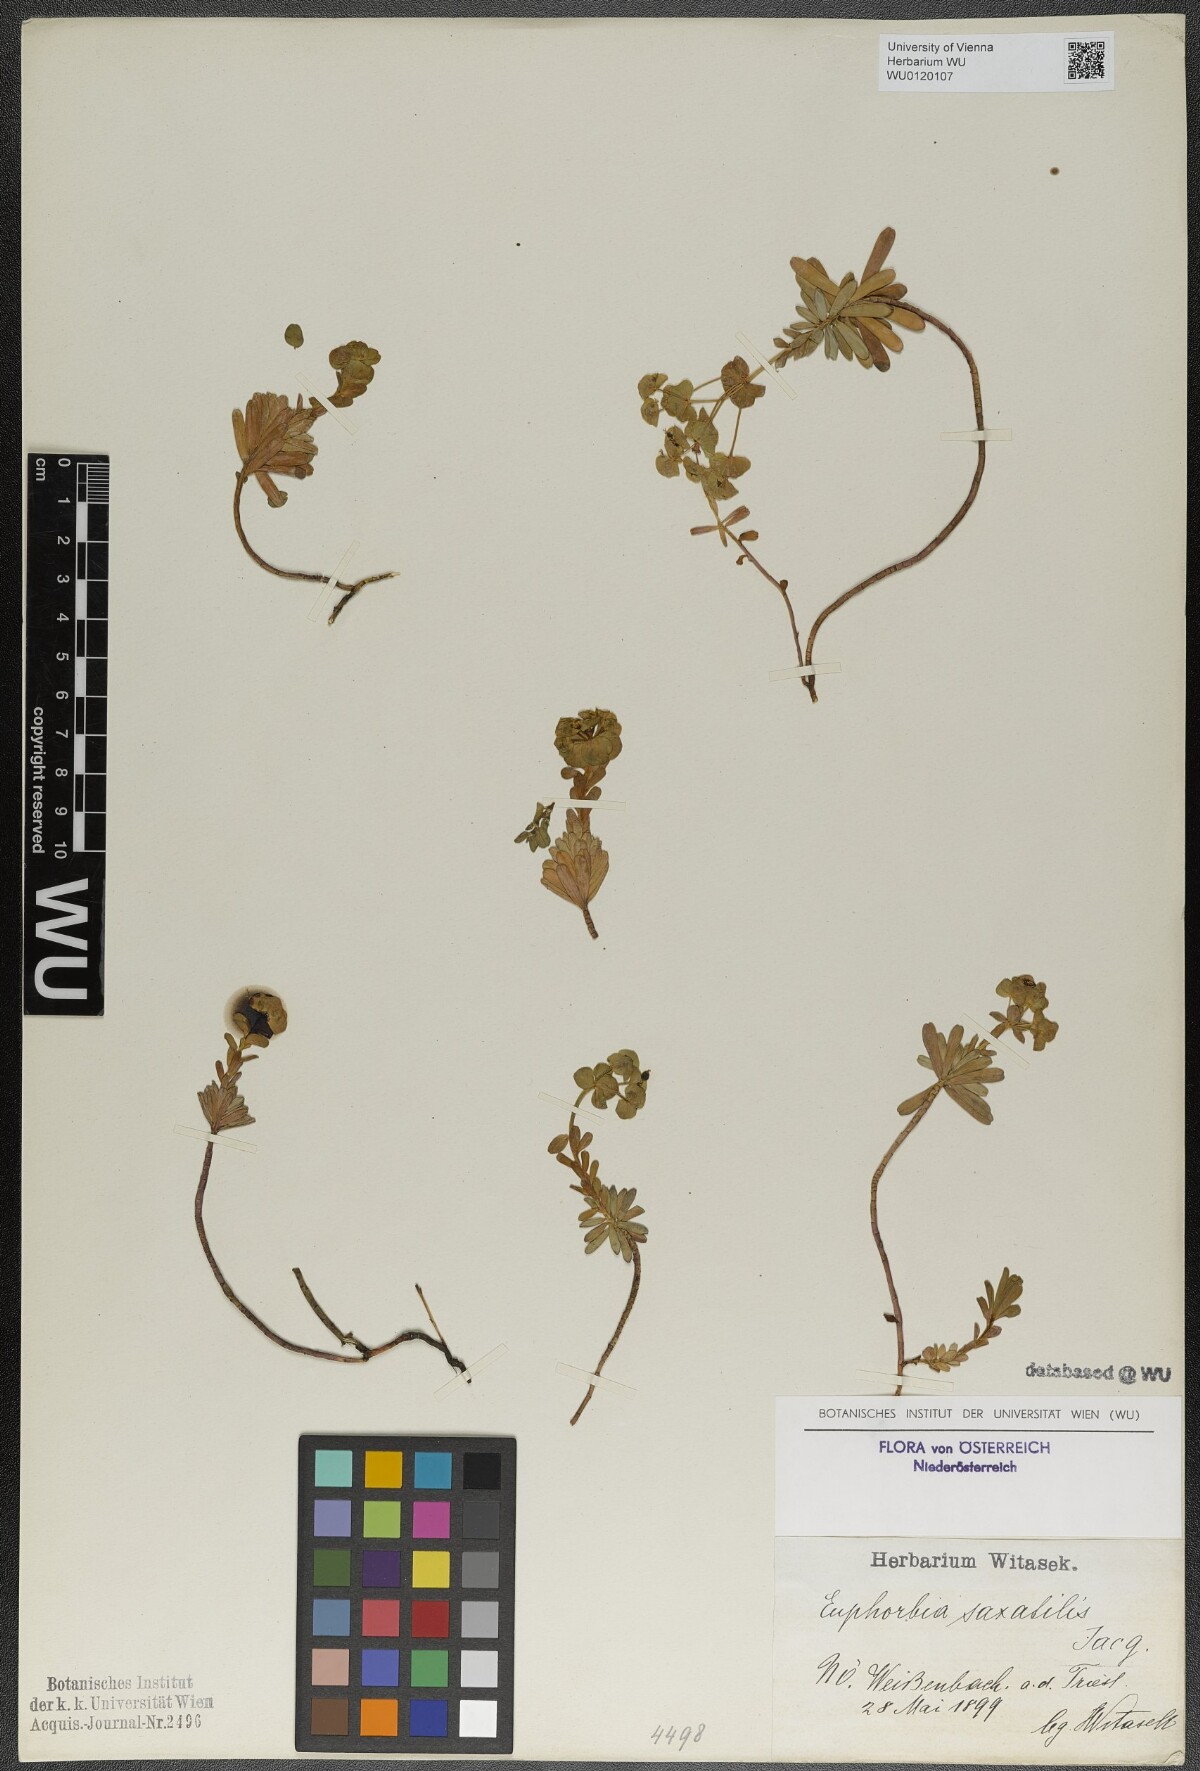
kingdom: Plantae
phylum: Tracheophyta
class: Magnoliopsida
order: Malpighiales
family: Euphorbiaceae
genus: Euphorbia
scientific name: Euphorbia saxatilis
